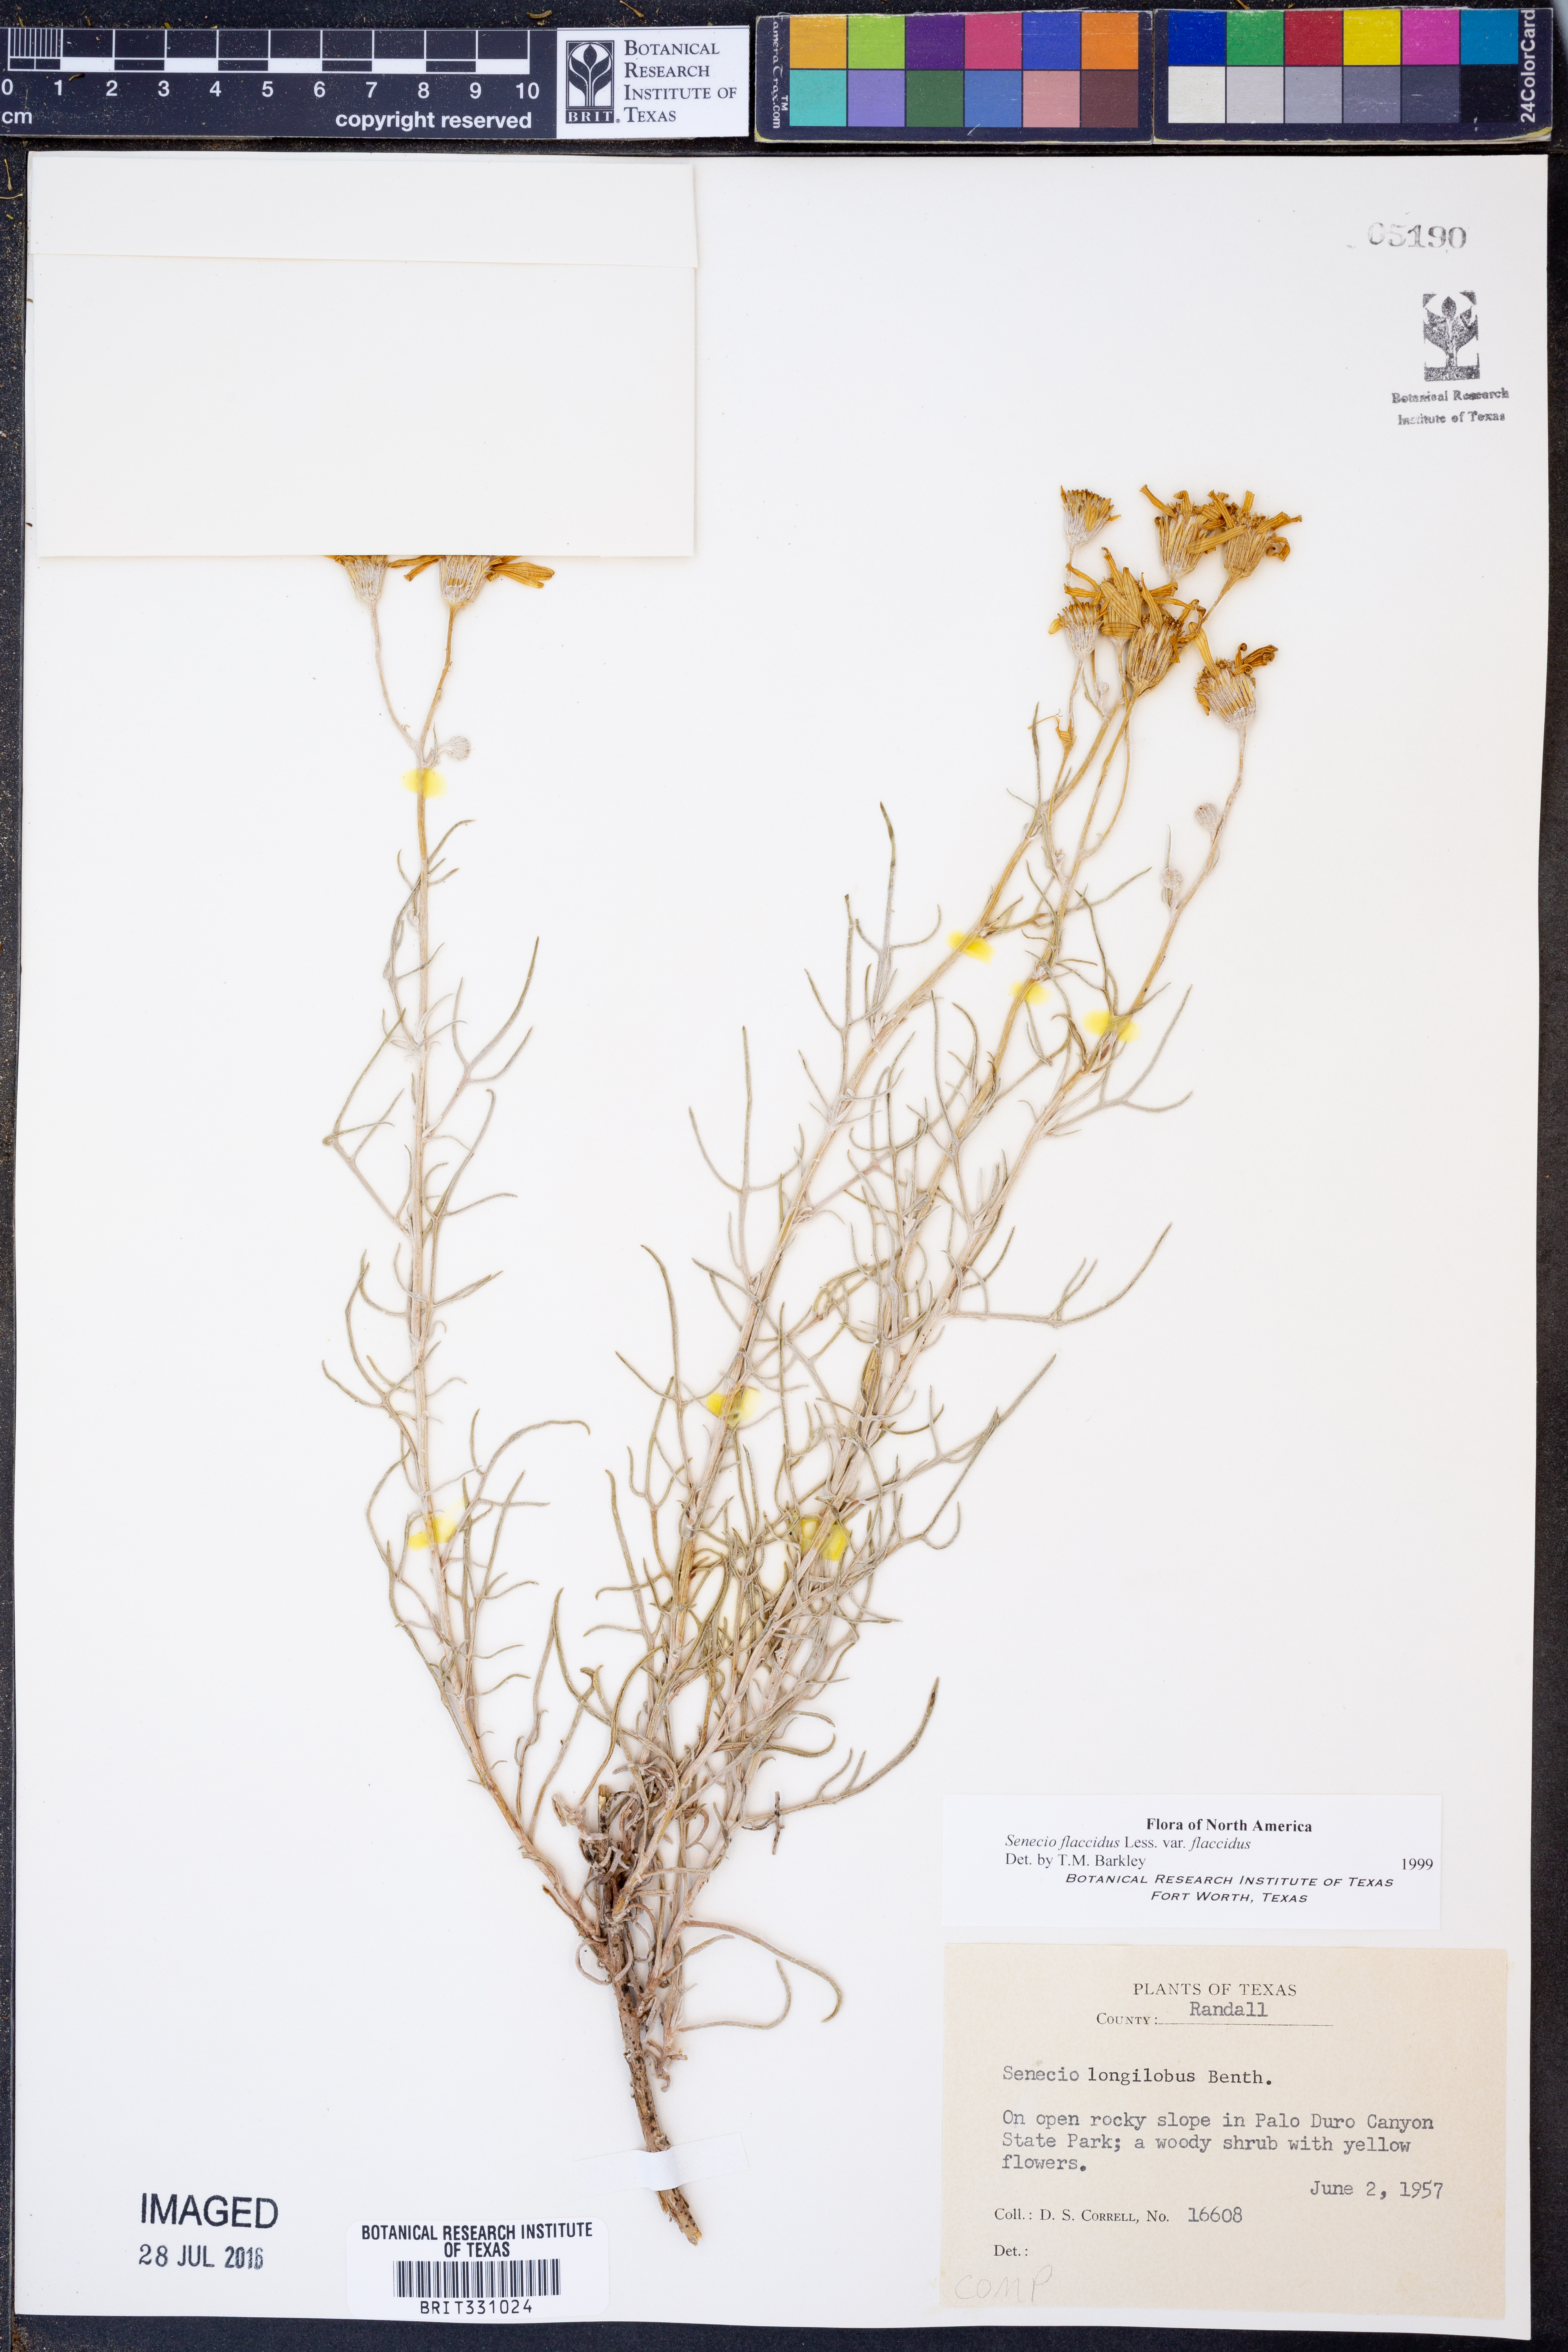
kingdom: Plantae
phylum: Tracheophyta
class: Magnoliopsida
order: Asterales
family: Asteraceae
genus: Senecio
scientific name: Senecio flaccidus
